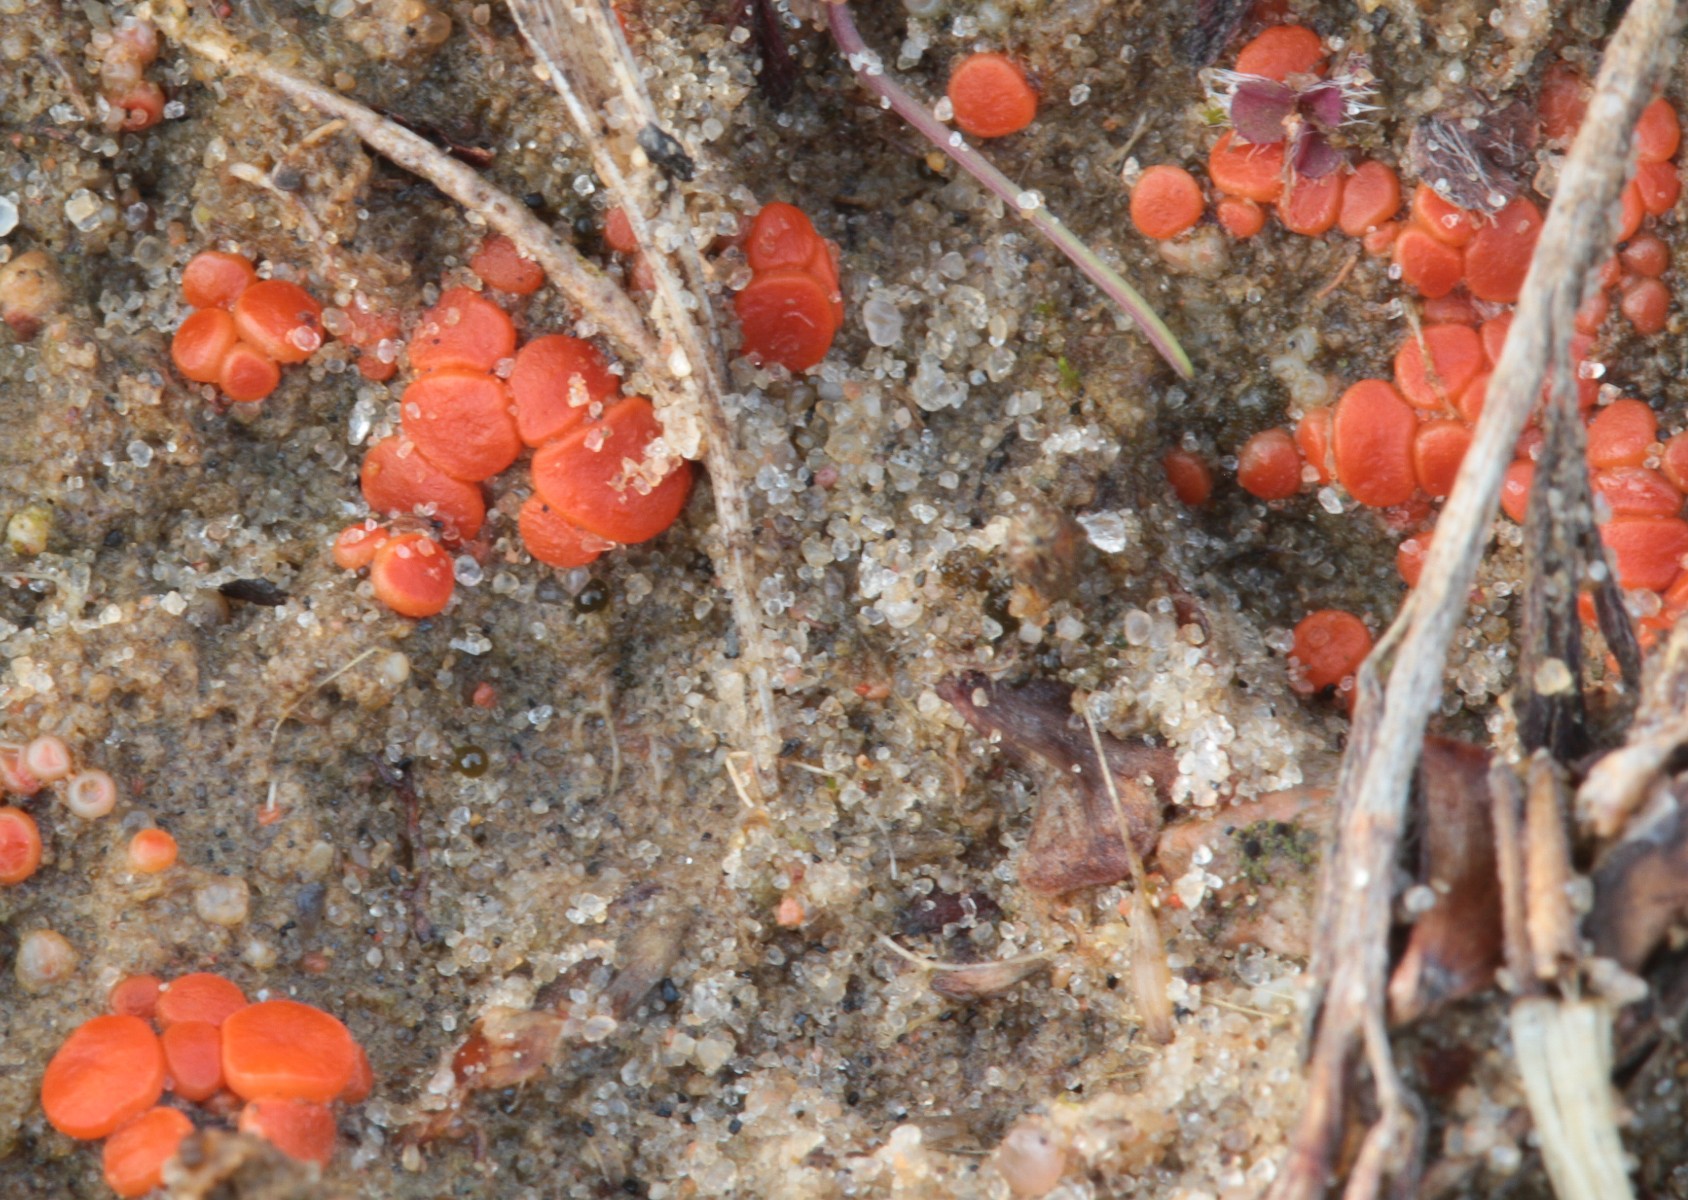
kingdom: Fungi
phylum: Ascomycota
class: Pezizomycetes
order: Pezizales
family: Pulvinulaceae
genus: Pulvinula
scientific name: Pulvinula convexella
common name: stor pudebæger
